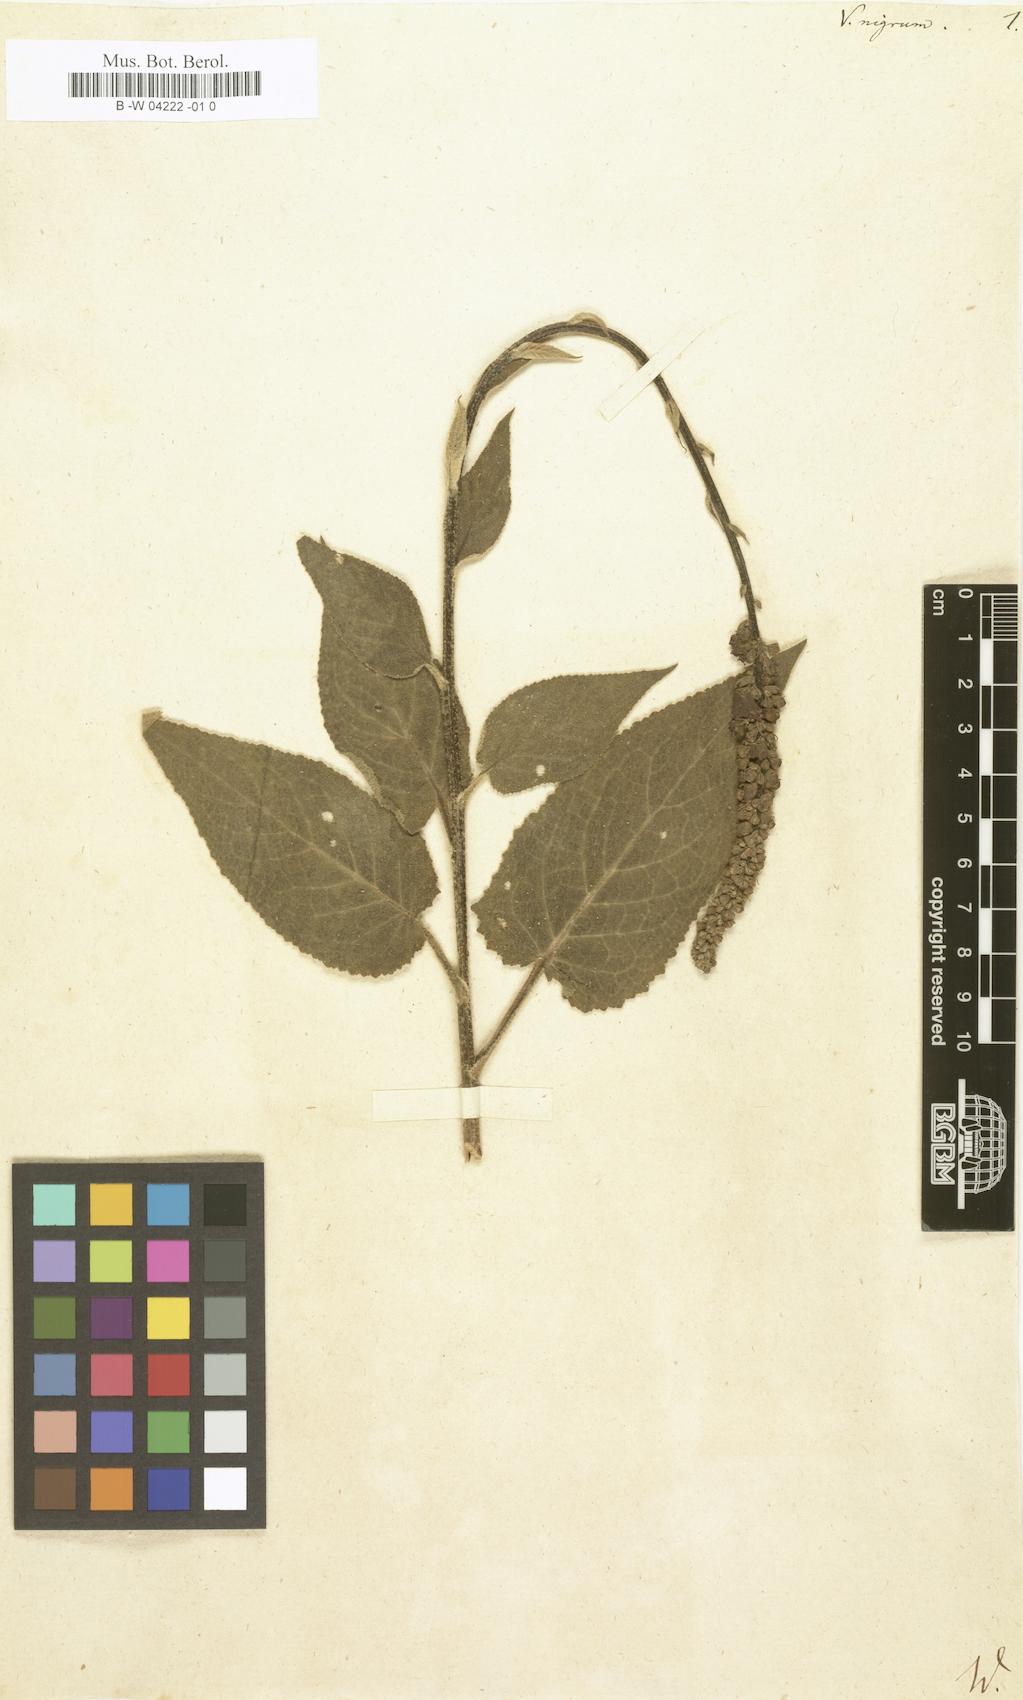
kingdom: Plantae
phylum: Tracheophyta
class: Magnoliopsida
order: Lamiales
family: Scrophulariaceae
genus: Verbascum
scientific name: Verbascum nigrum
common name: Dark mullein
